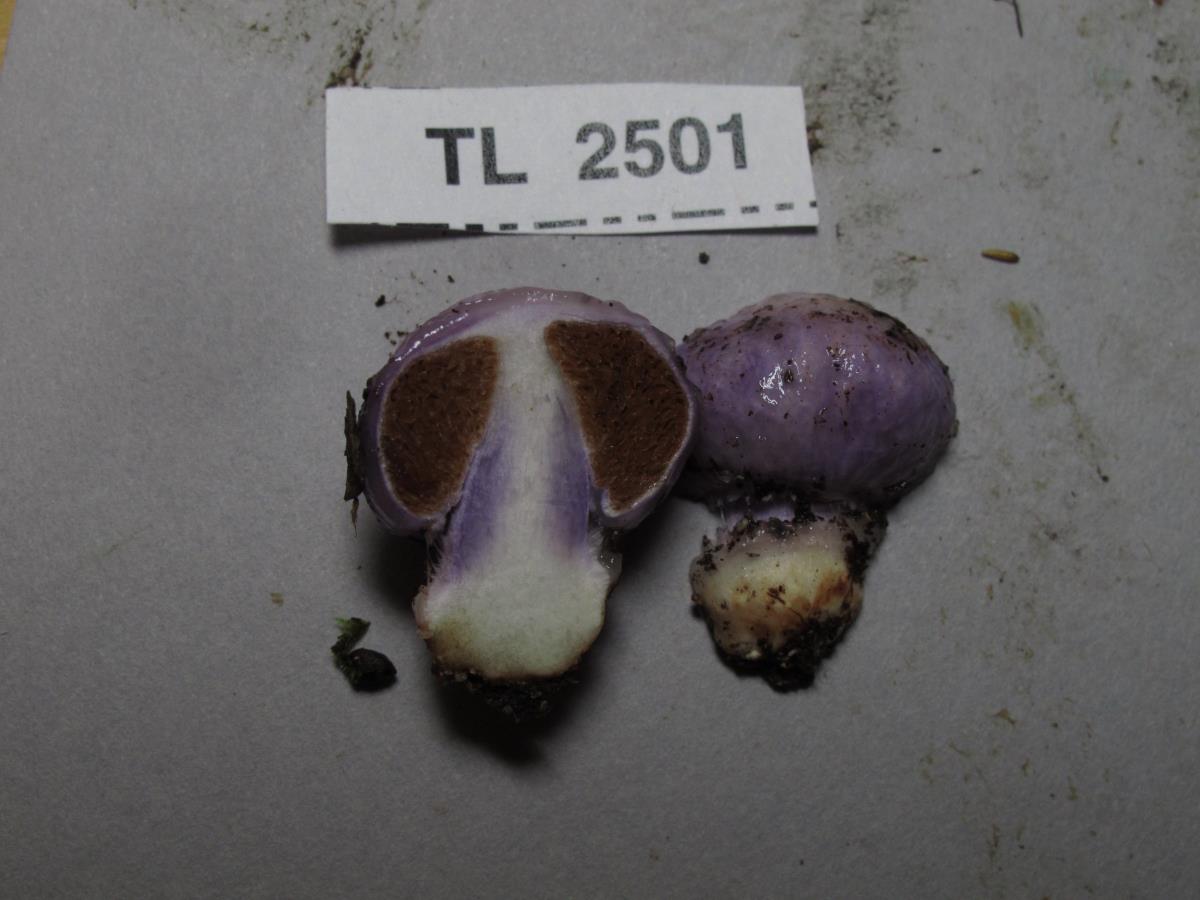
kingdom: Fungi
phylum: Basidiomycota
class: Agaricomycetes
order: Agaricales
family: Cortinariaceae
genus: Cortinarius
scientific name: Cortinarius violaceovolvatus
